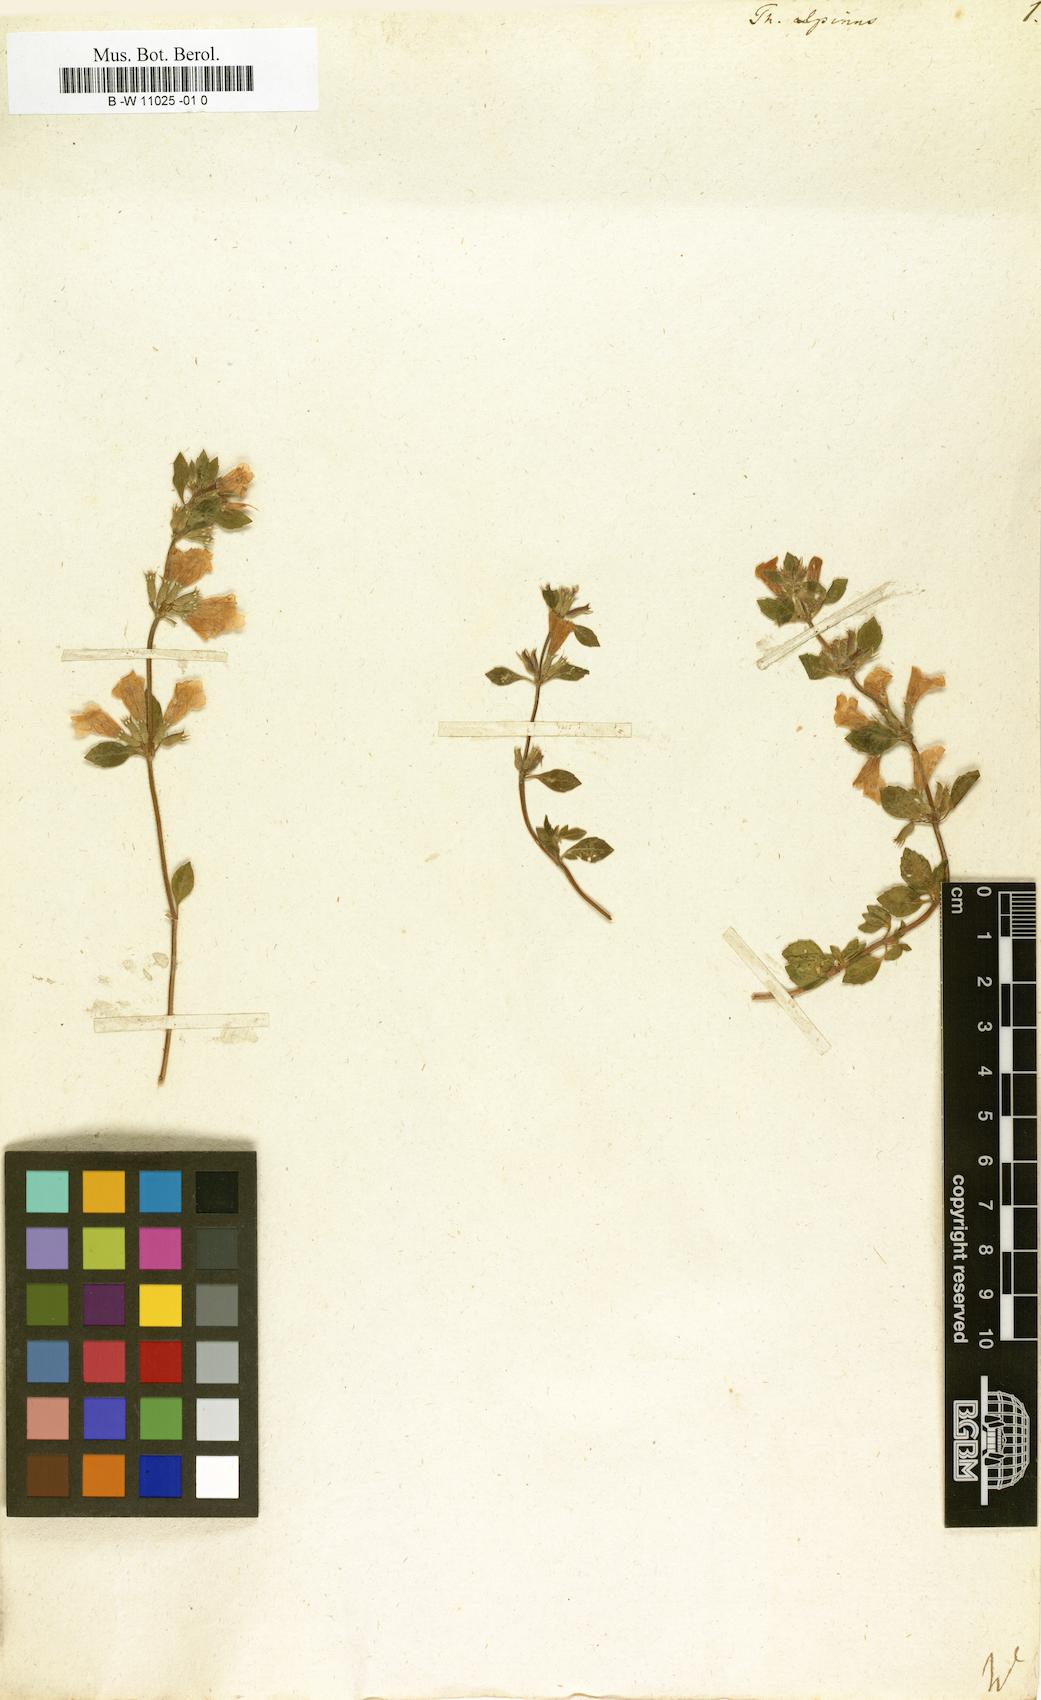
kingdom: Plantae
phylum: Tracheophyta
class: Magnoliopsida
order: Lamiales
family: Lamiaceae
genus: Thymus
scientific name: Thymus alpinus
